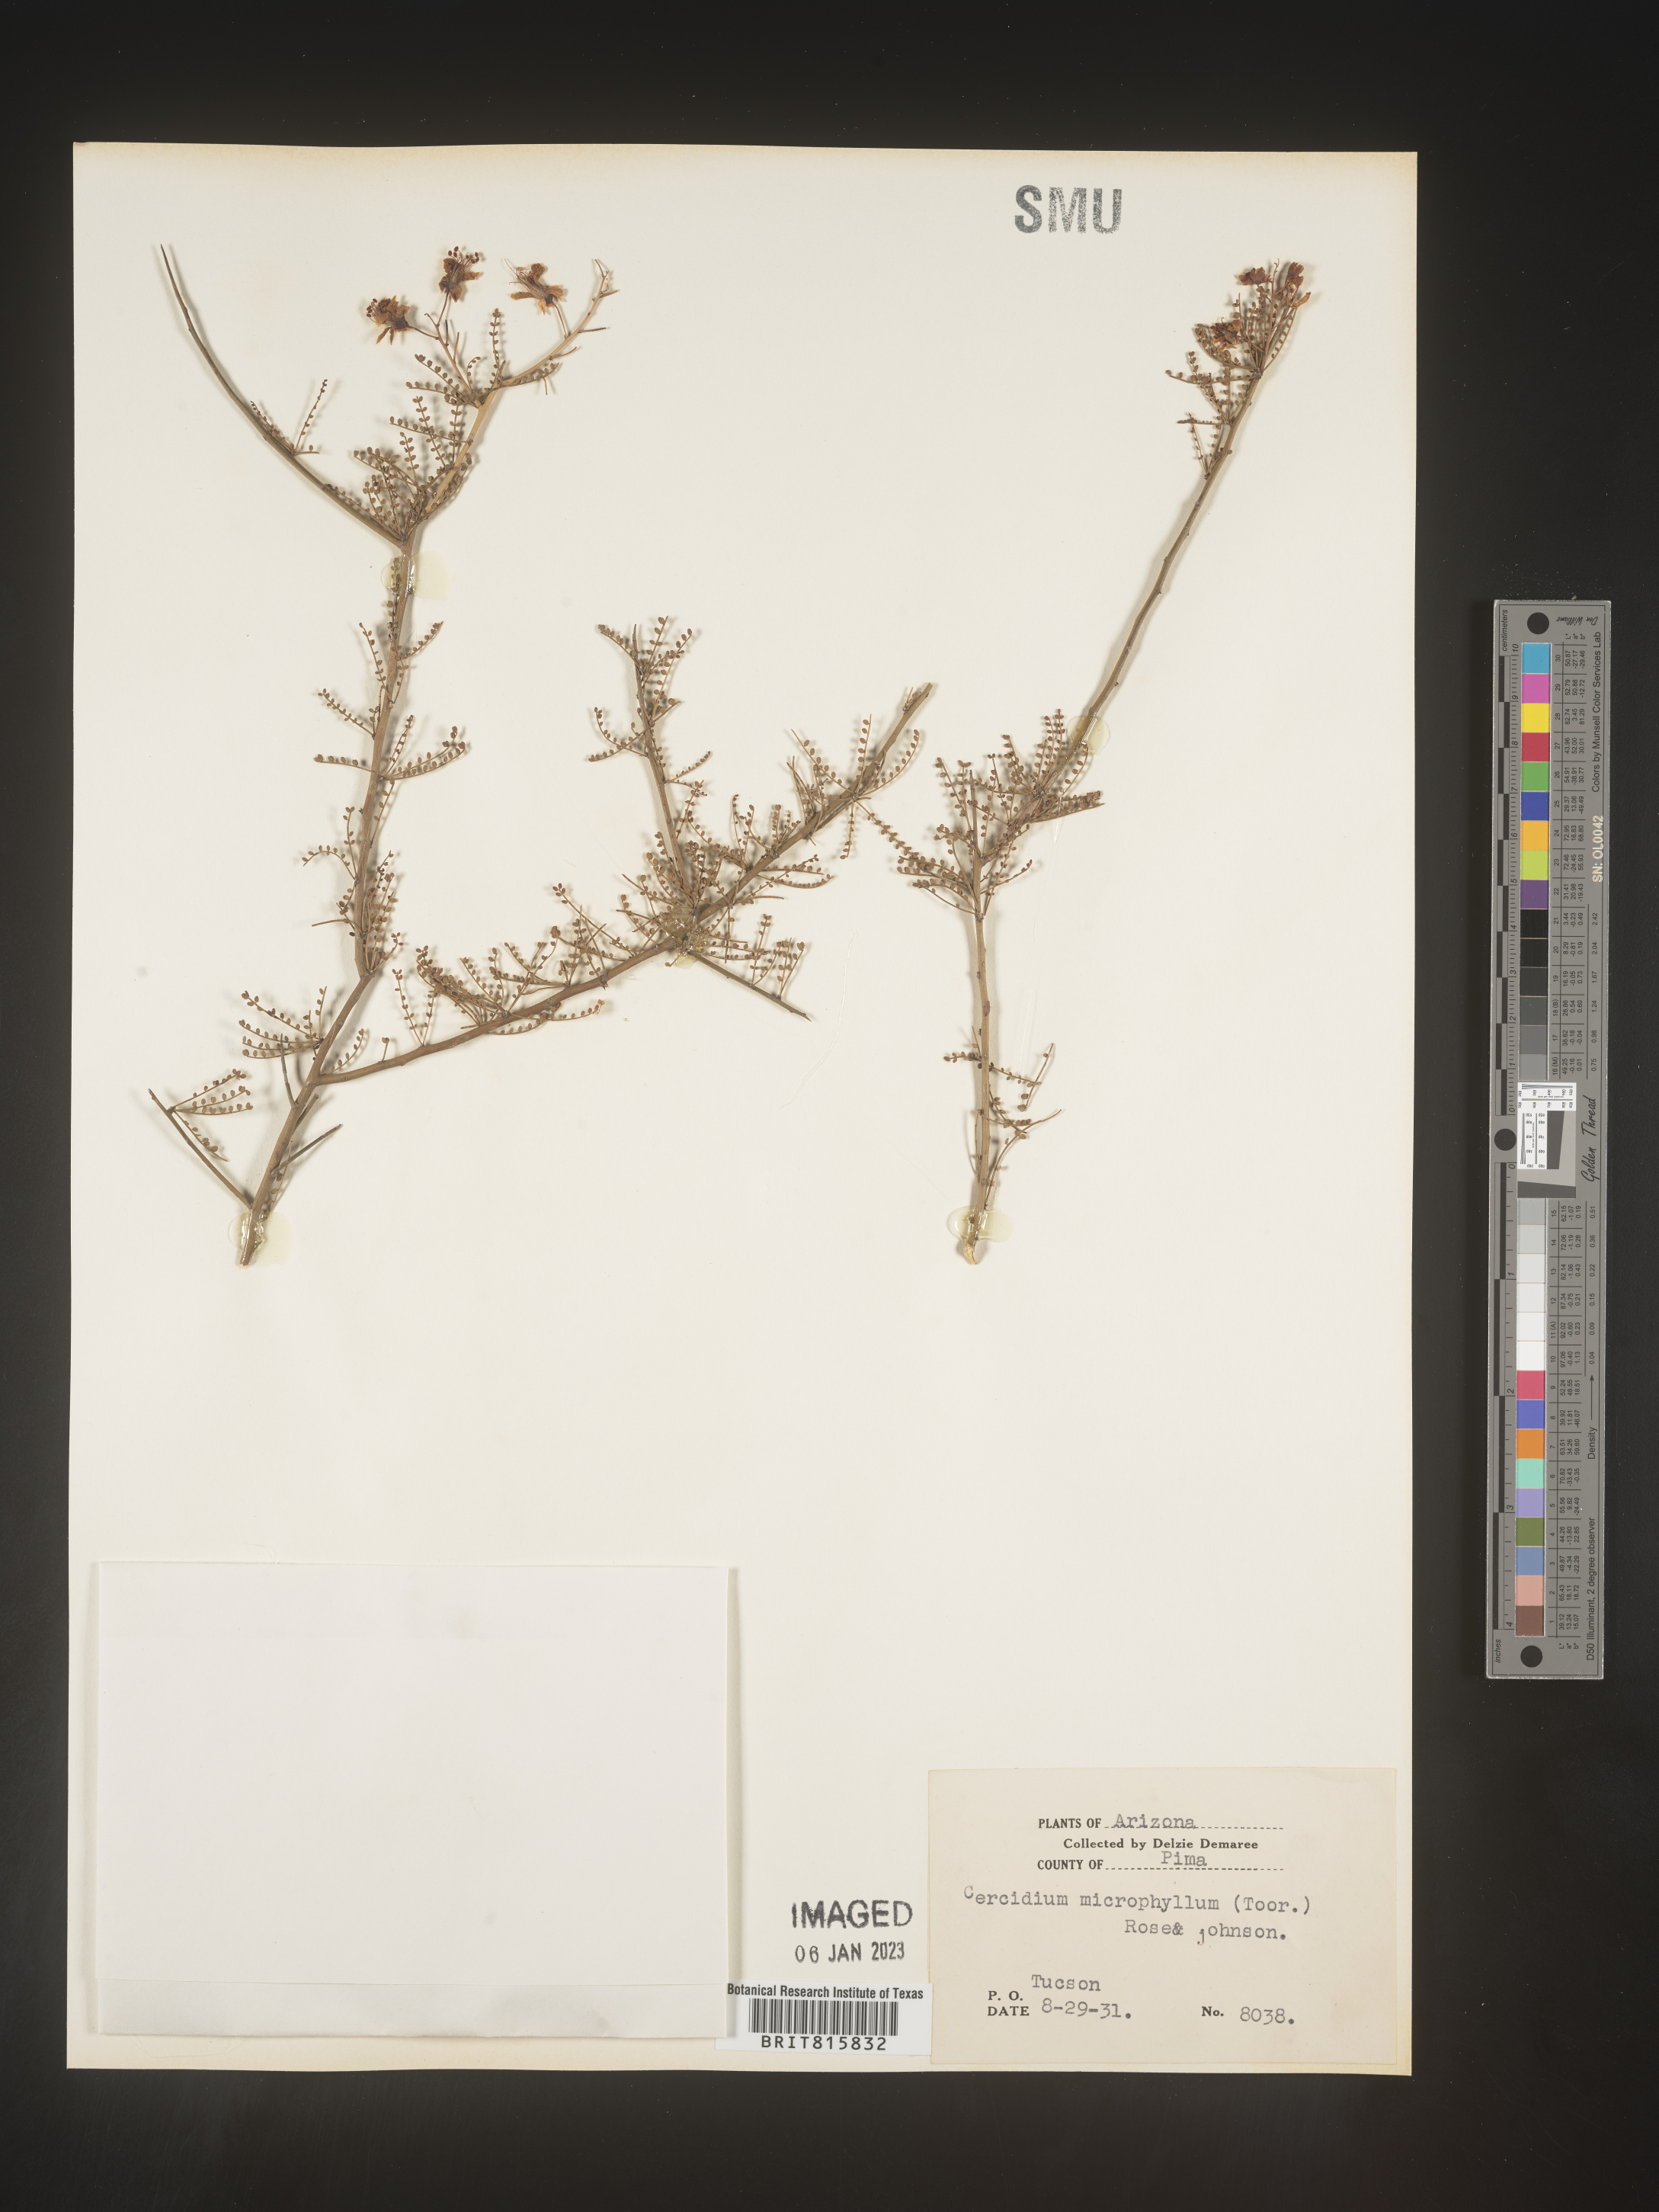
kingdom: Plantae
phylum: Chlorophyta
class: Chlorophyceae
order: Volvocales
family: Chlamydomonadaceae
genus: Cercidium
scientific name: Cercidium
